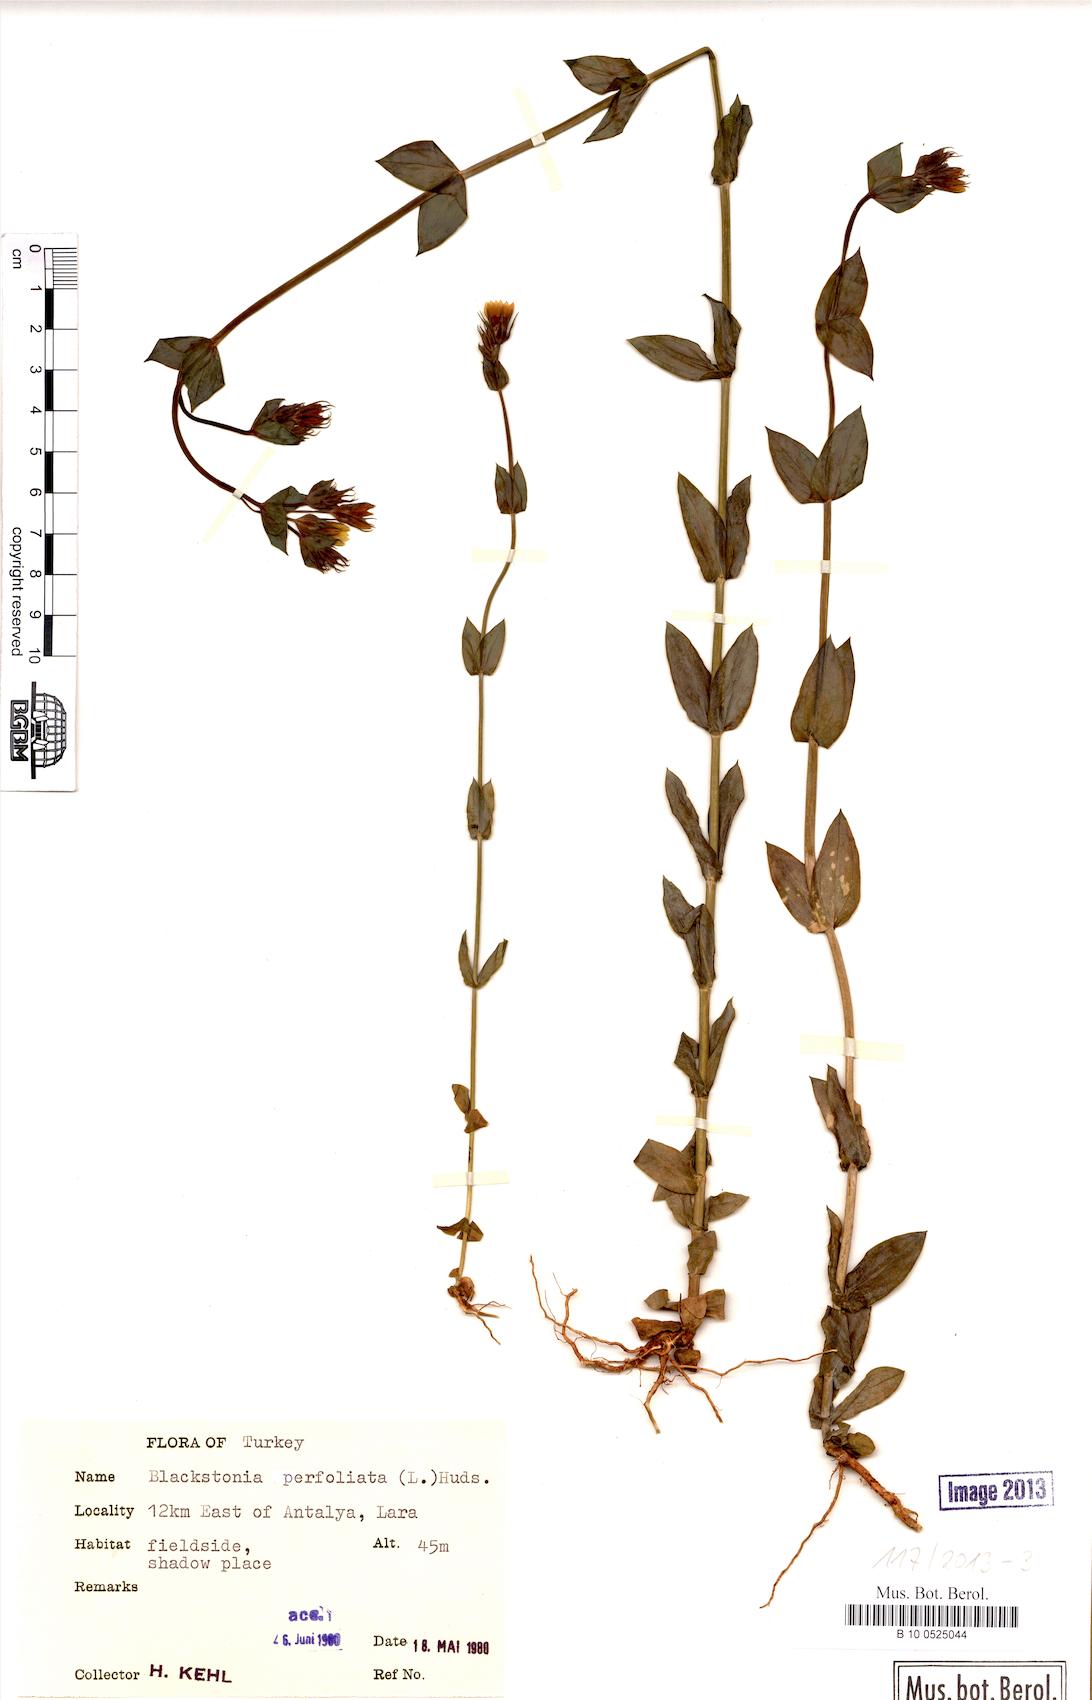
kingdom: Plantae
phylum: Tracheophyta
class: Magnoliopsida
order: Gentianales
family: Gentianaceae
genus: Blackstonia
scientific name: Blackstonia perfoliata
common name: Yellow-wort
